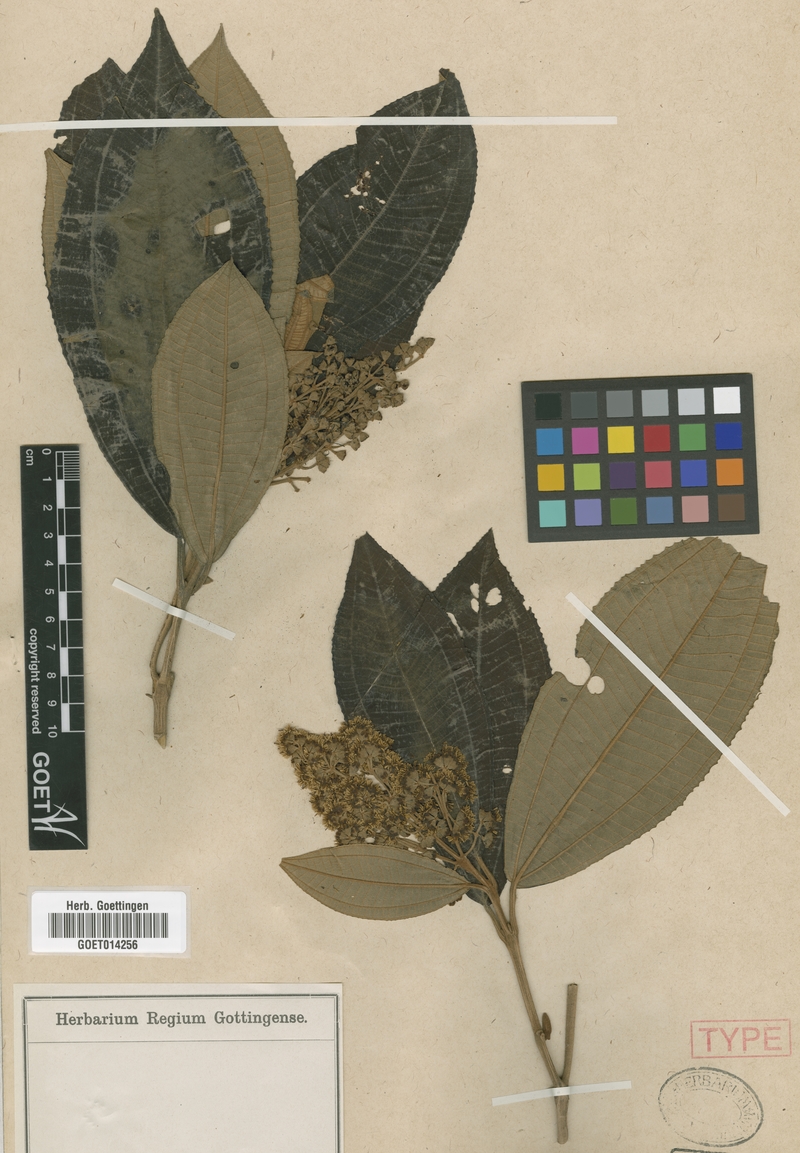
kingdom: Plantae
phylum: Tracheophyta
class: Magnoliopsida
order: Myrtales
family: Melastomataceae
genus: Miconia
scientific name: Miconia ioneura
